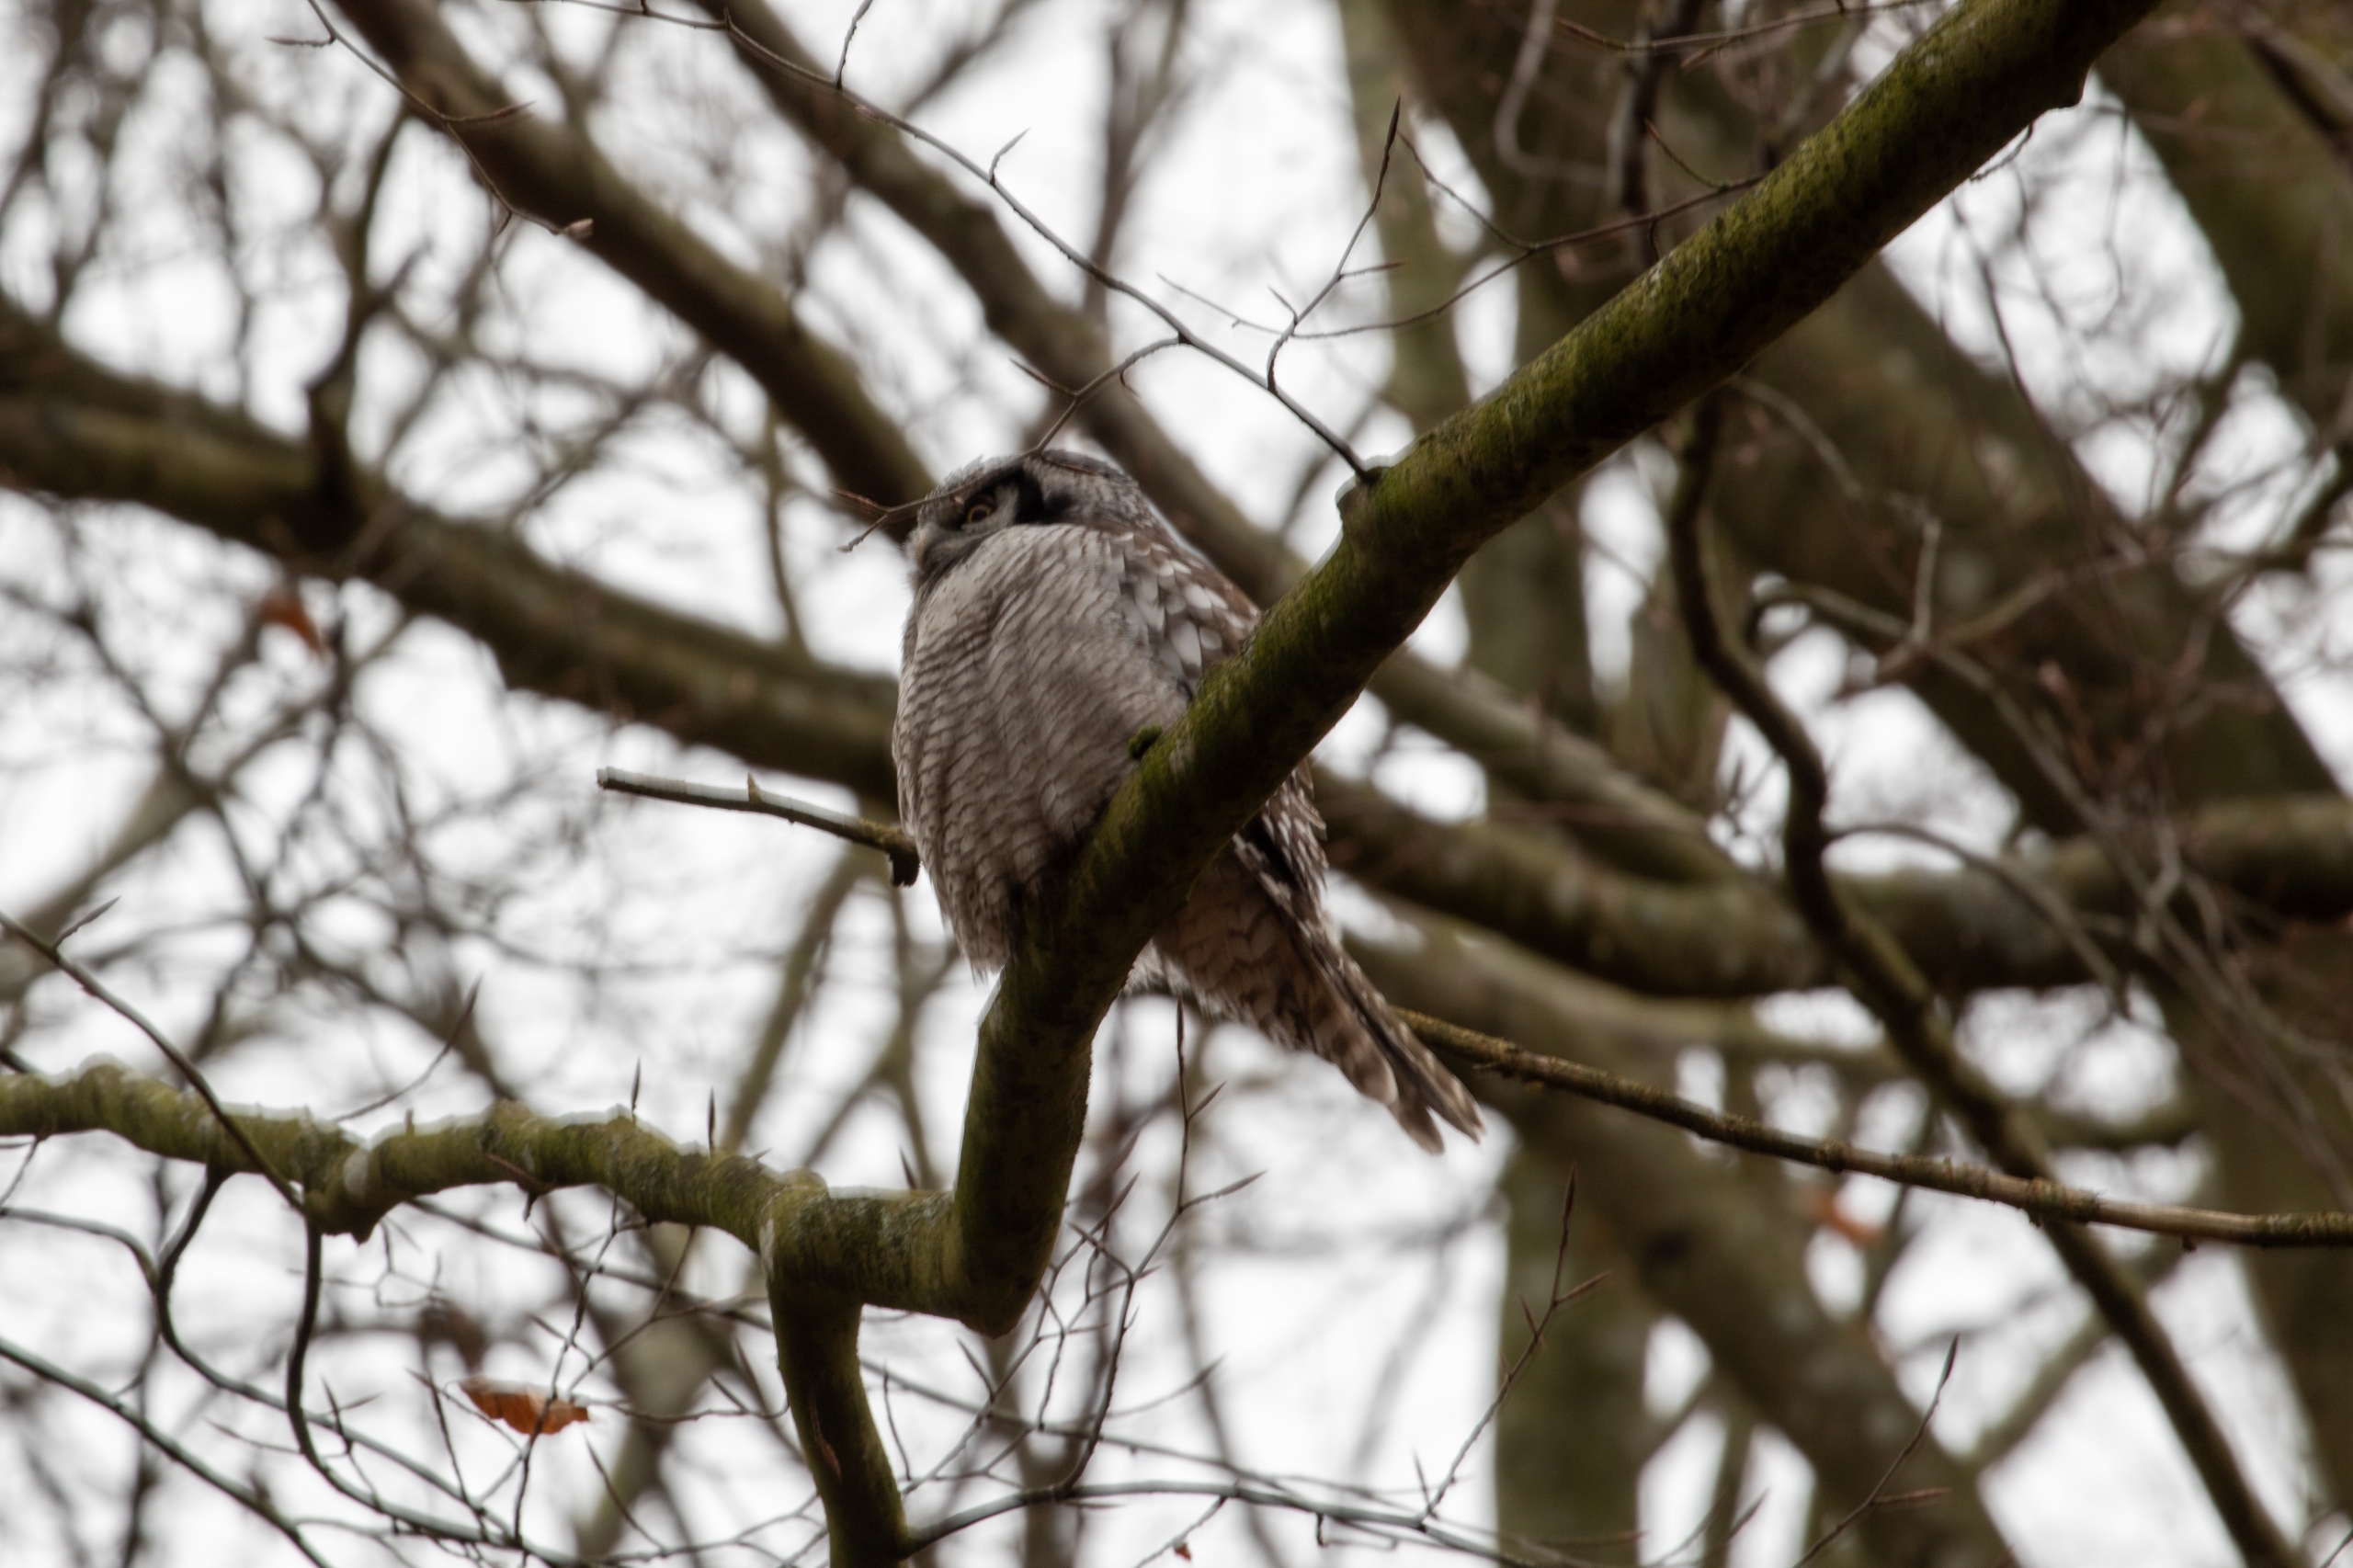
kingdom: Animalia
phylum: Chordata
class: Aves
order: Strigiformes
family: Strigidae
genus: Surnia
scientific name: Surnia ulula
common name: Høgeugle
